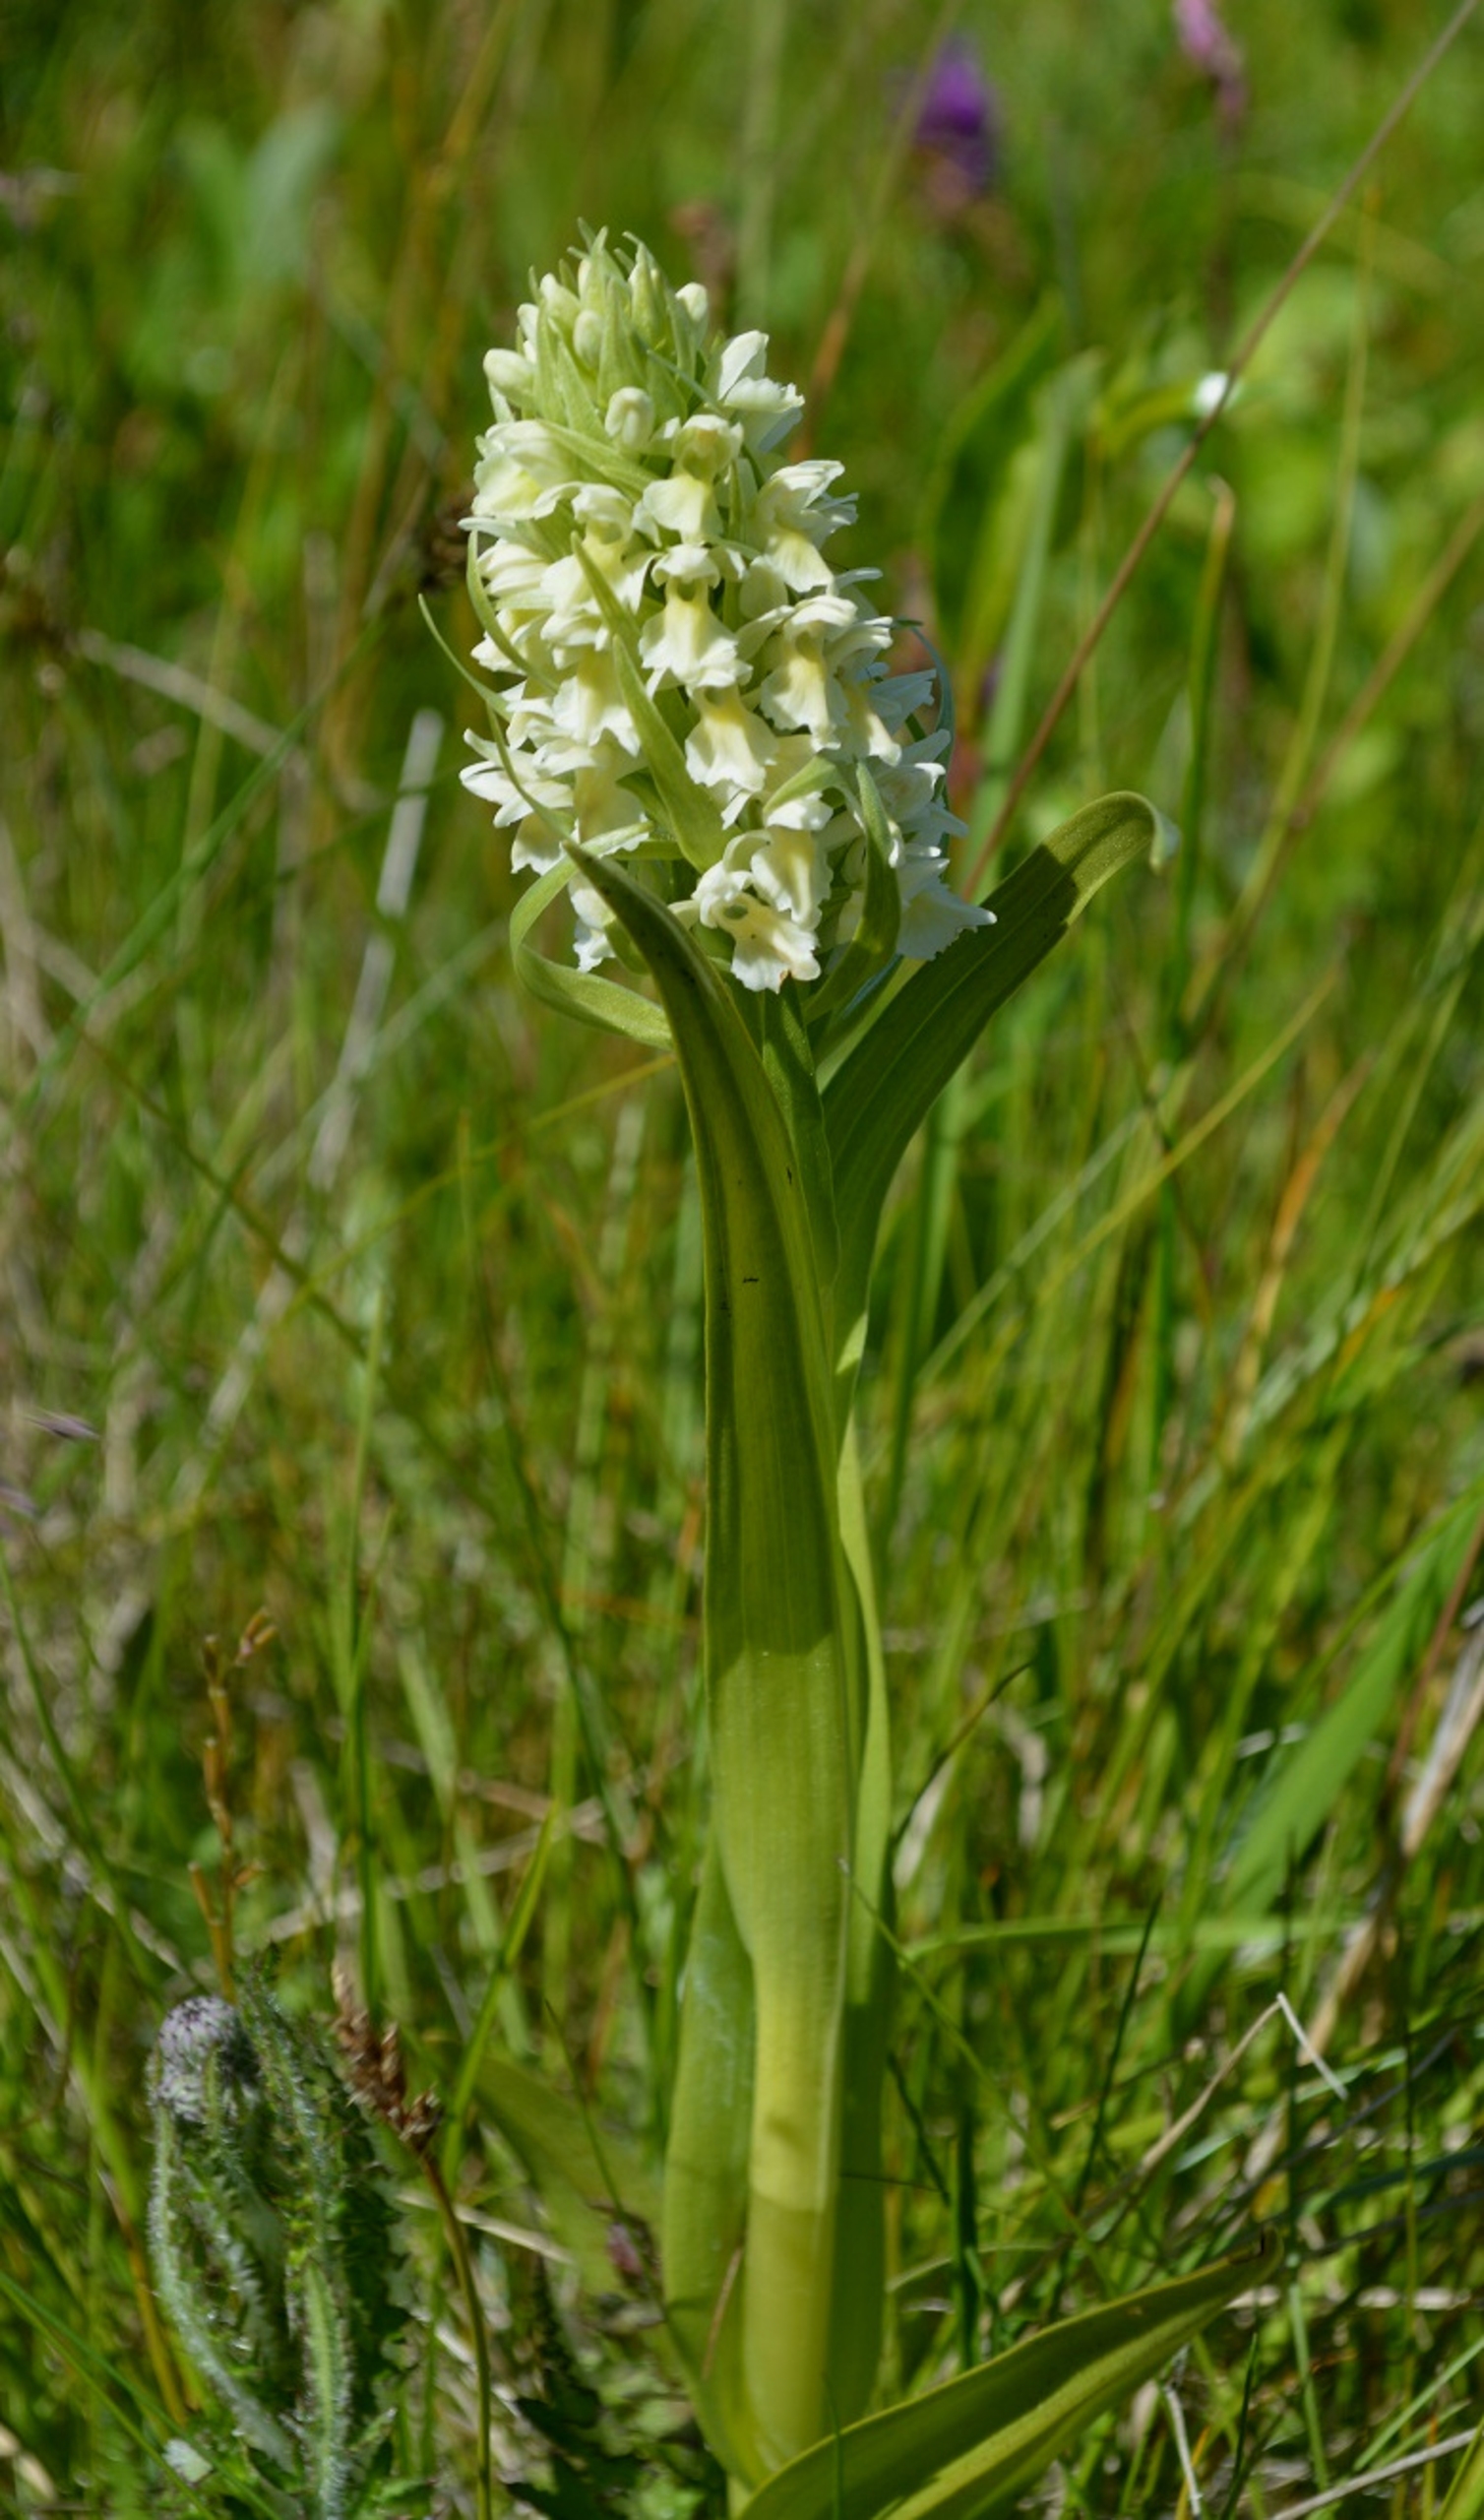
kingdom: Plantae
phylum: Tracheophyta
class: Liliopsida
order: Asparagales
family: Orchidaceae
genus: Dactylorhiza
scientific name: Dactylorhiza incarnata
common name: Hvidgul gøgeurt
